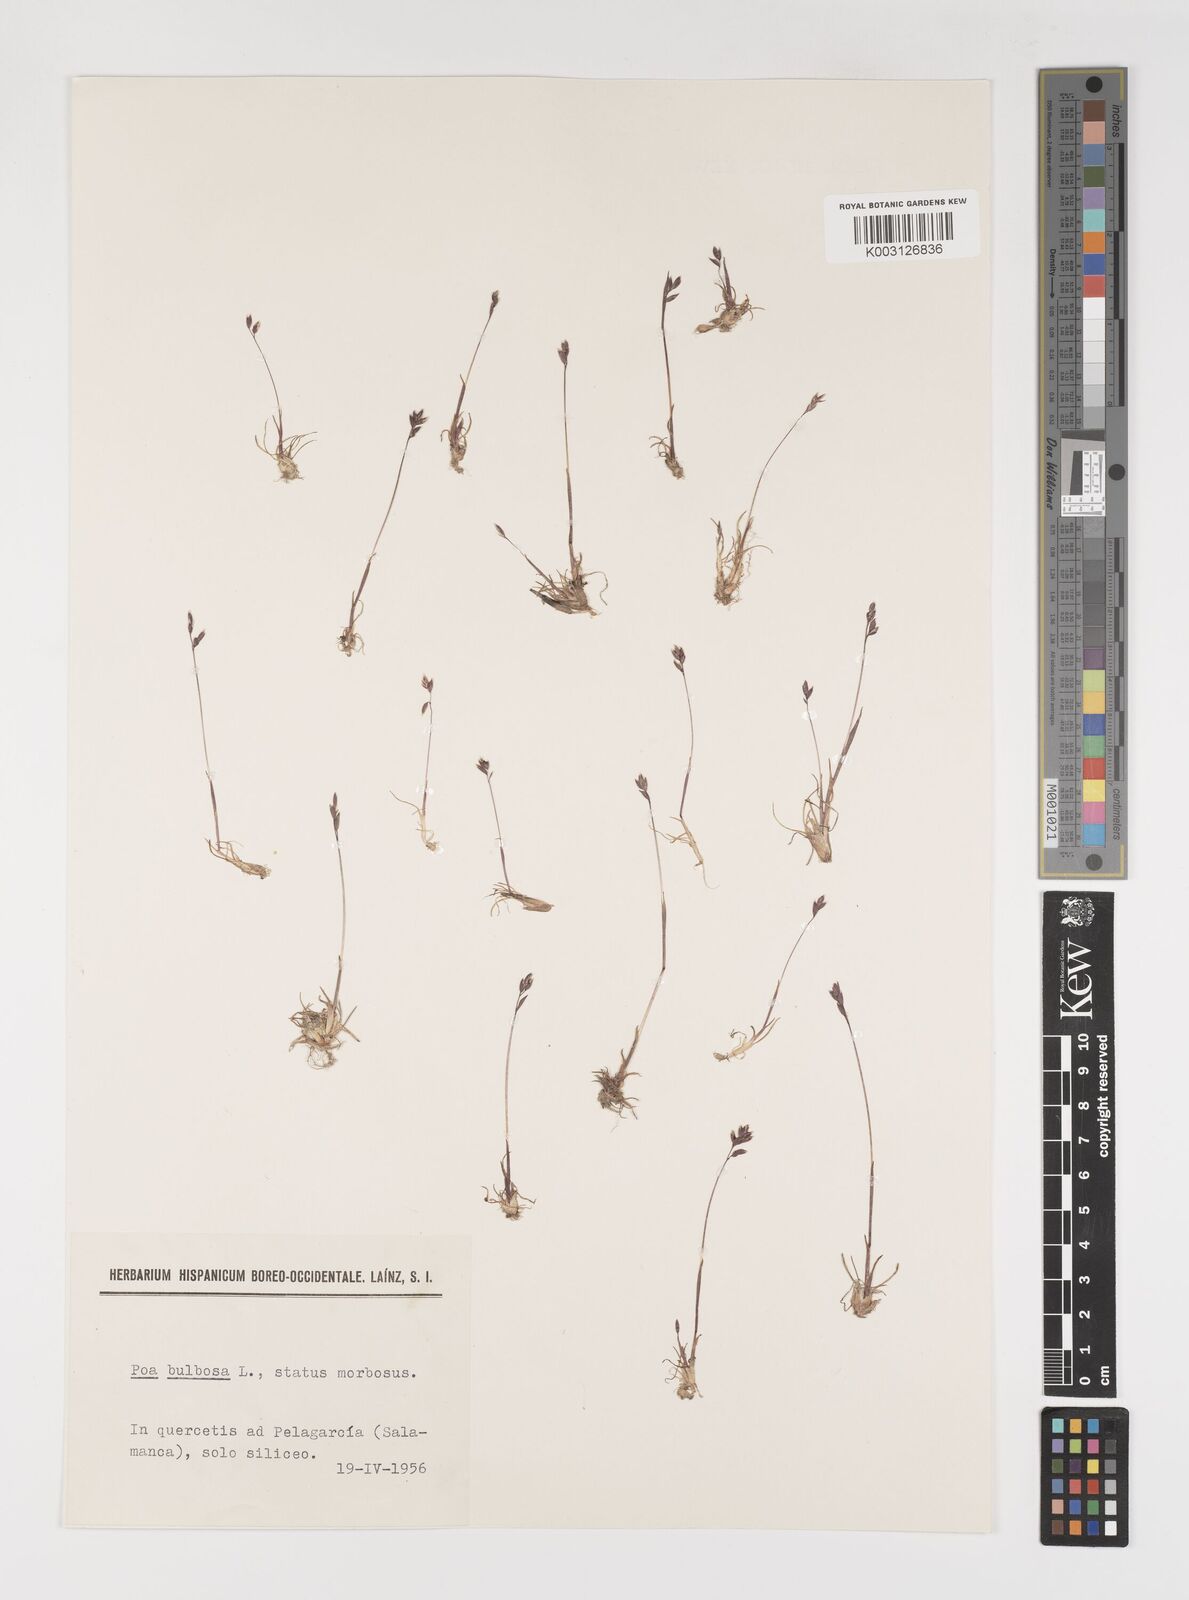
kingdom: Plantae
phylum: Tracheophyta
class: Liliopsida
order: Poales
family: Poaceae
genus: Poa
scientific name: Poa bulbosa
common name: Bulbous bluegrass
